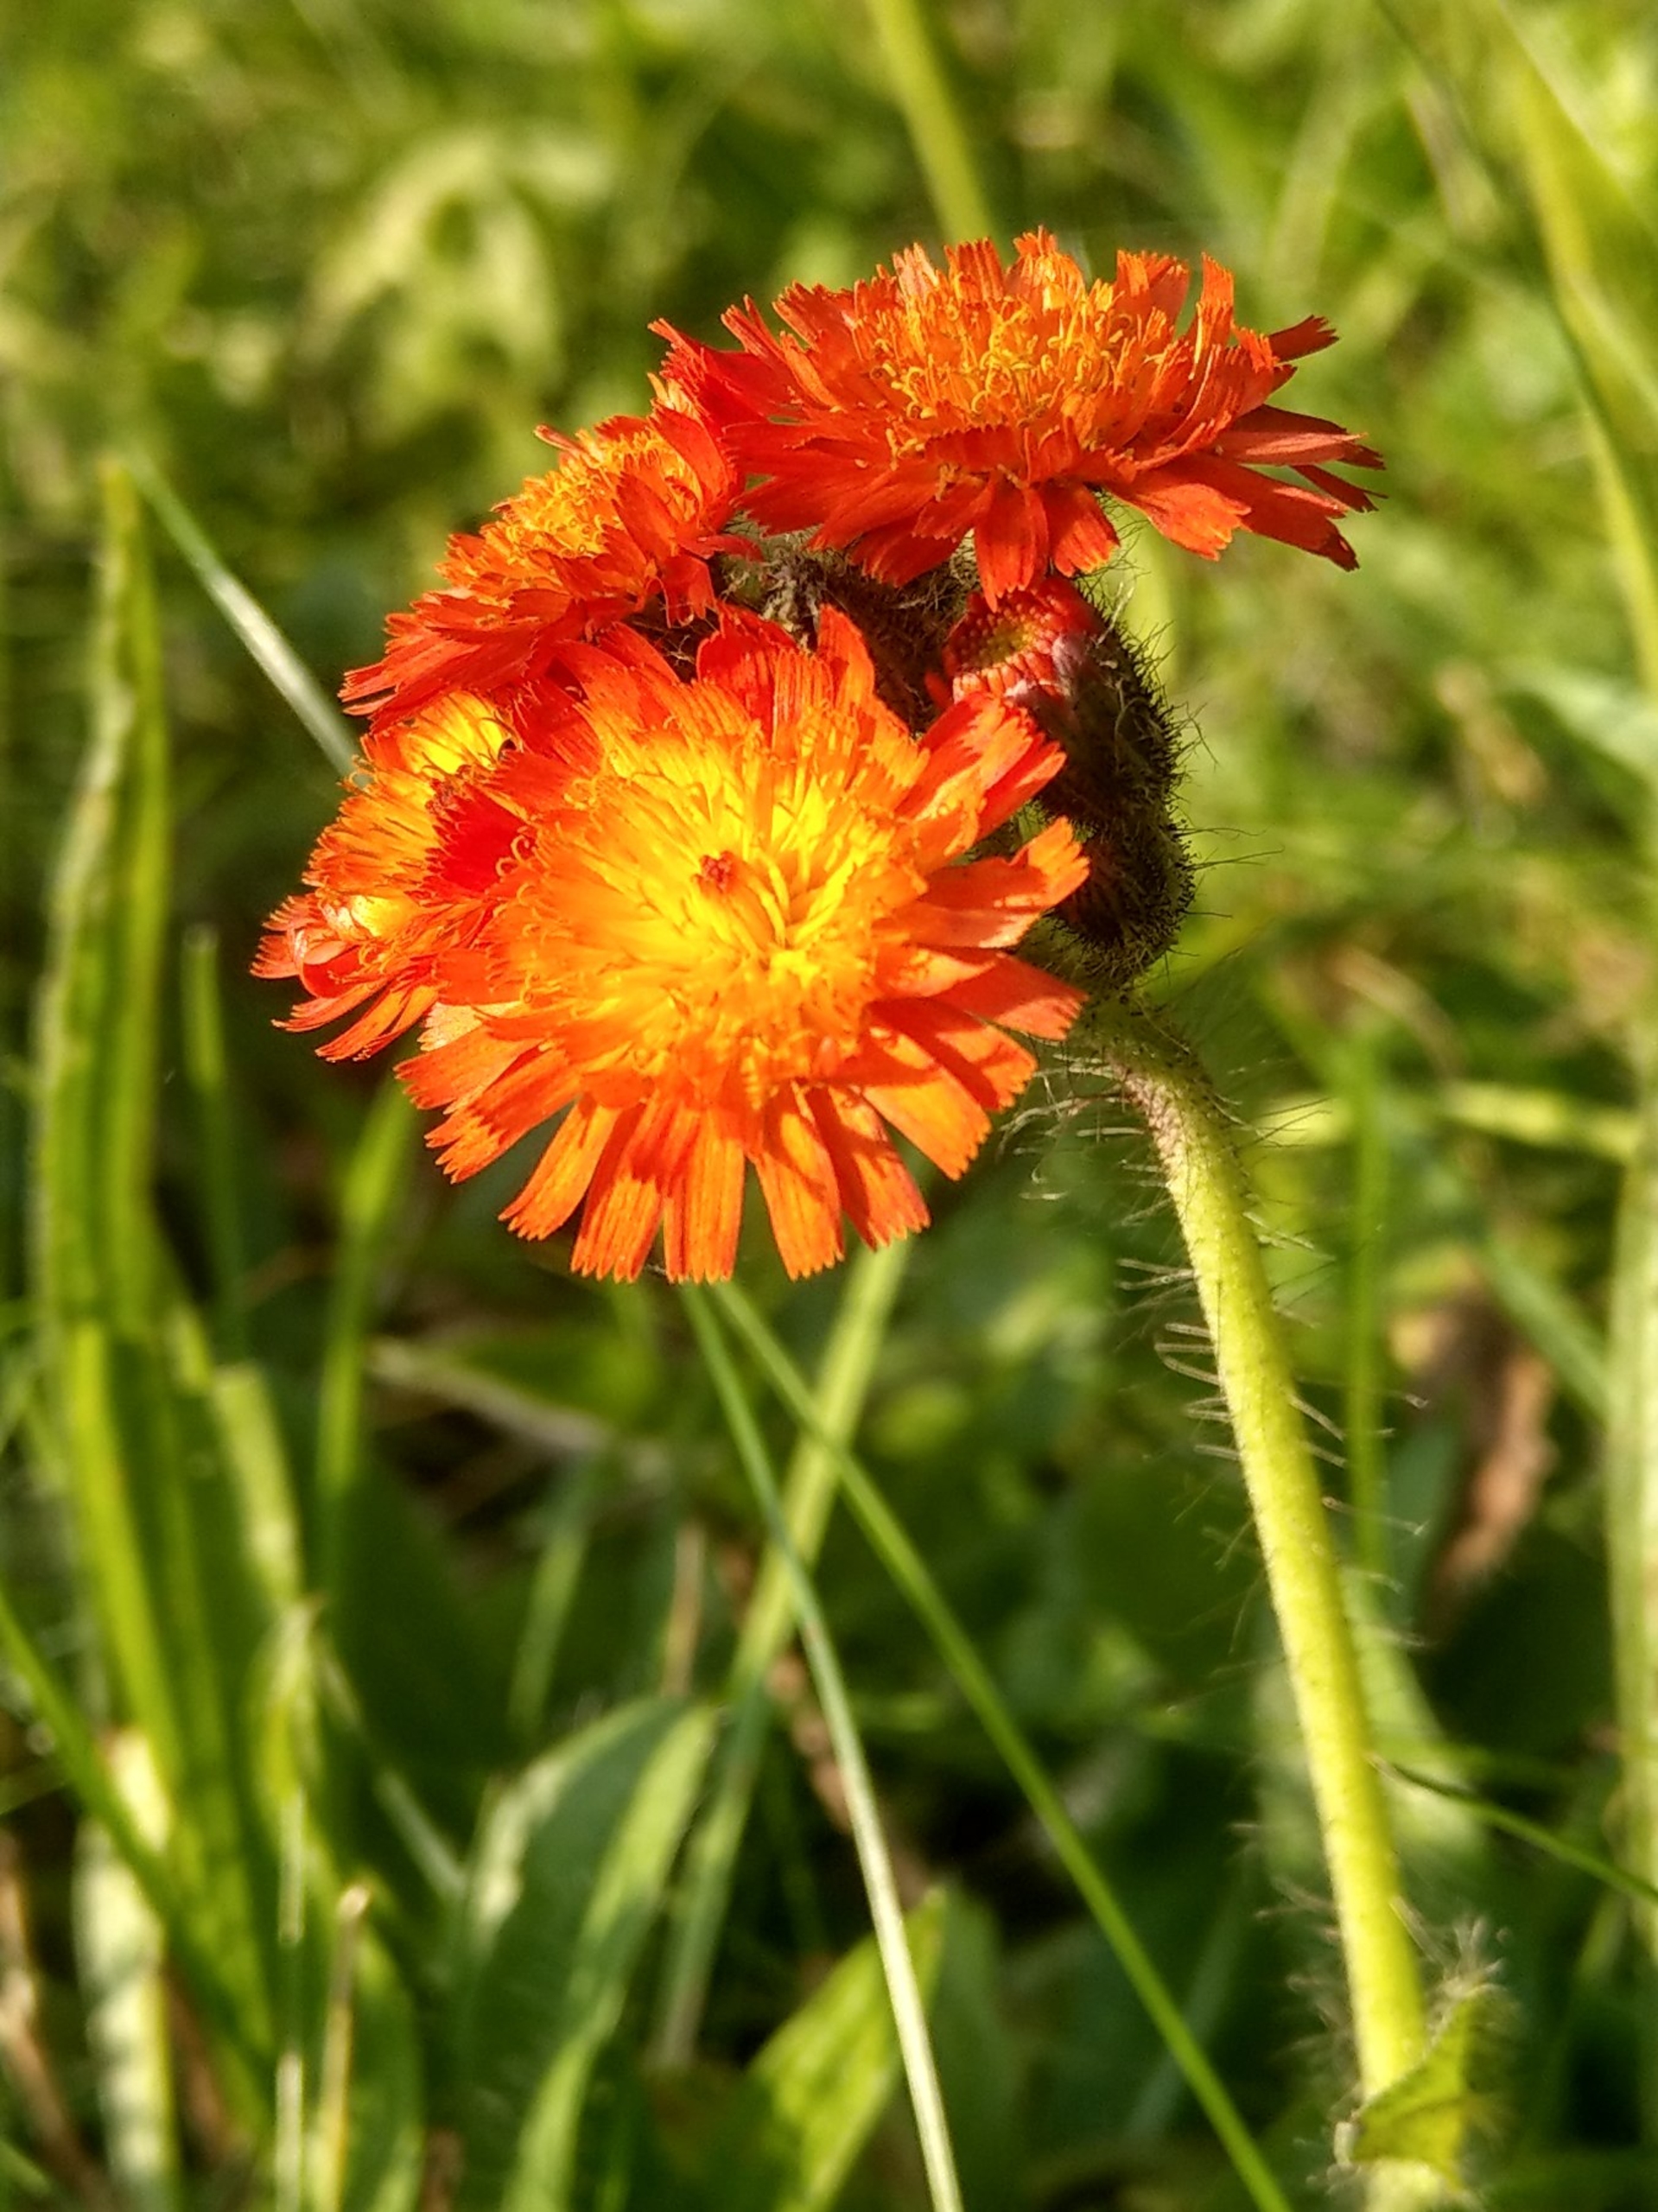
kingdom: Plantae
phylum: Tracheophyta
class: Magnoliopsida
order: Asterales
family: Asteraceae
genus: Pilosella
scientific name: Pilosella aurantiaca
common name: Pomerans-høgeurt
